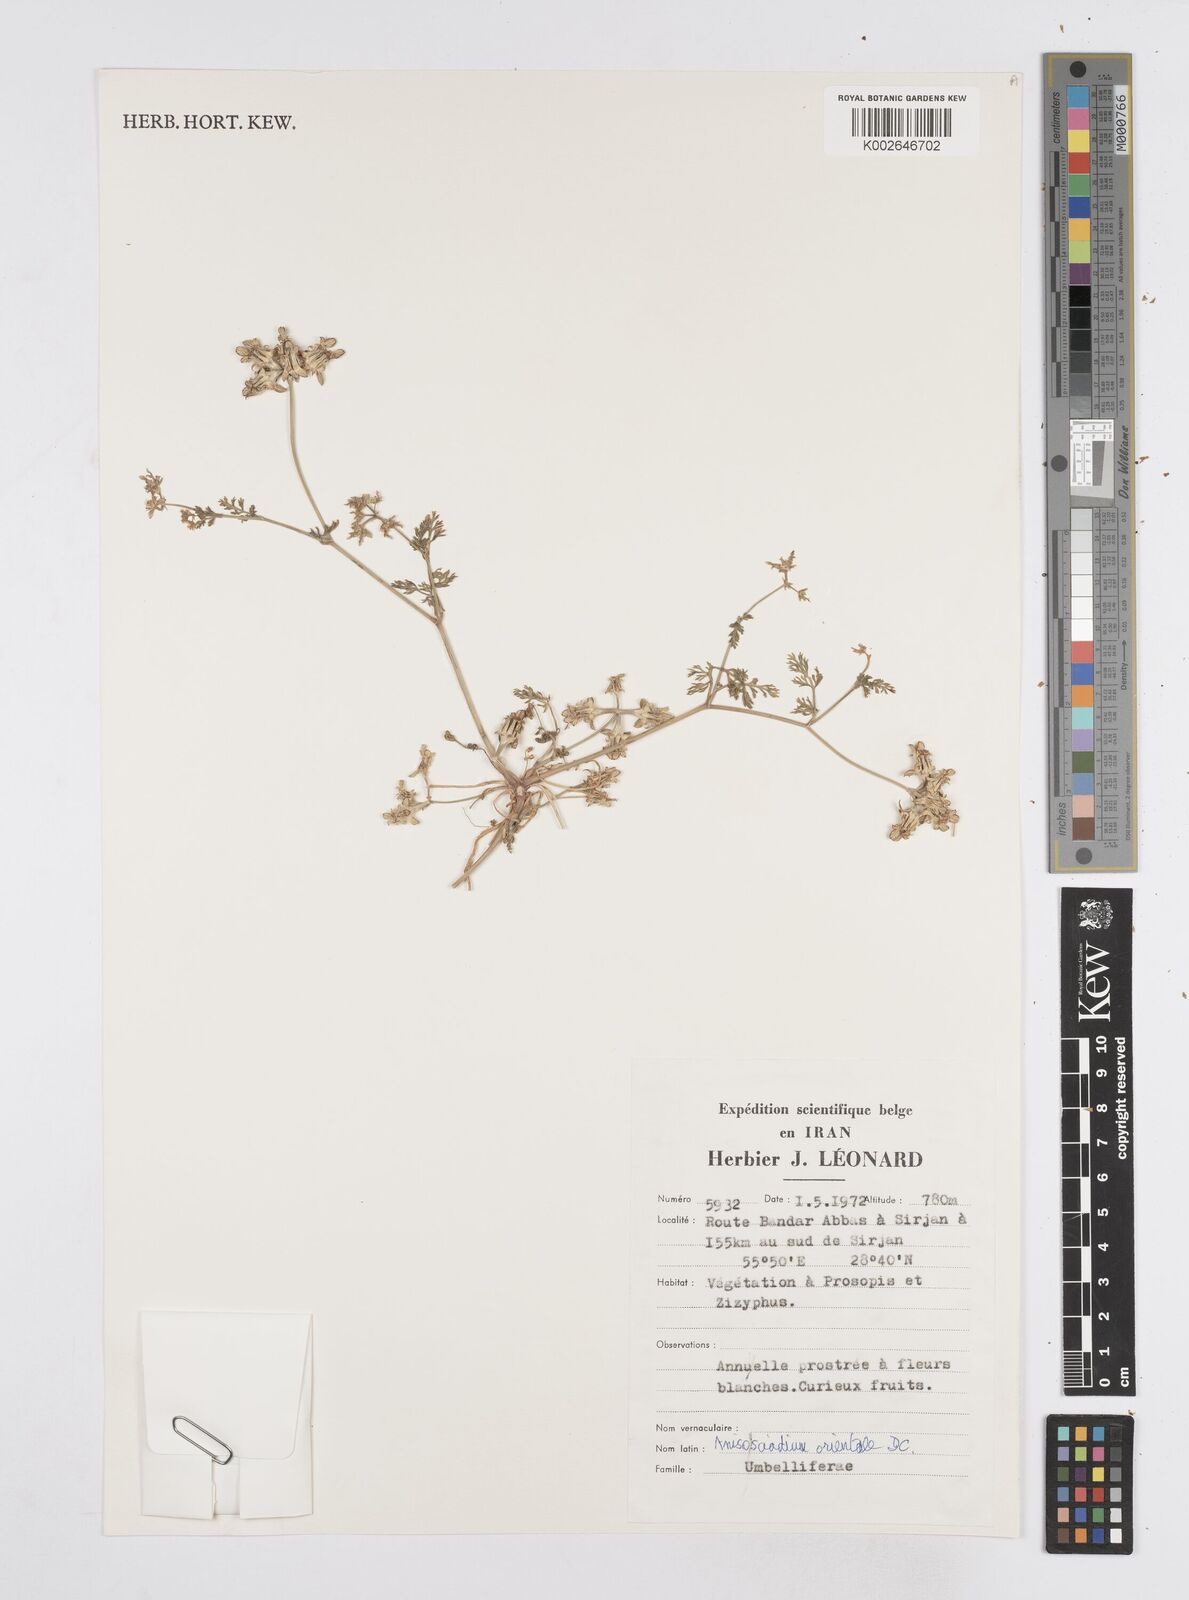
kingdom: Plantae
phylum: Tracheophyta
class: Magnoliopsida
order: Apiales
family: Apiaceae
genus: Anisosciadium
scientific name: Anisosciadium orientale
